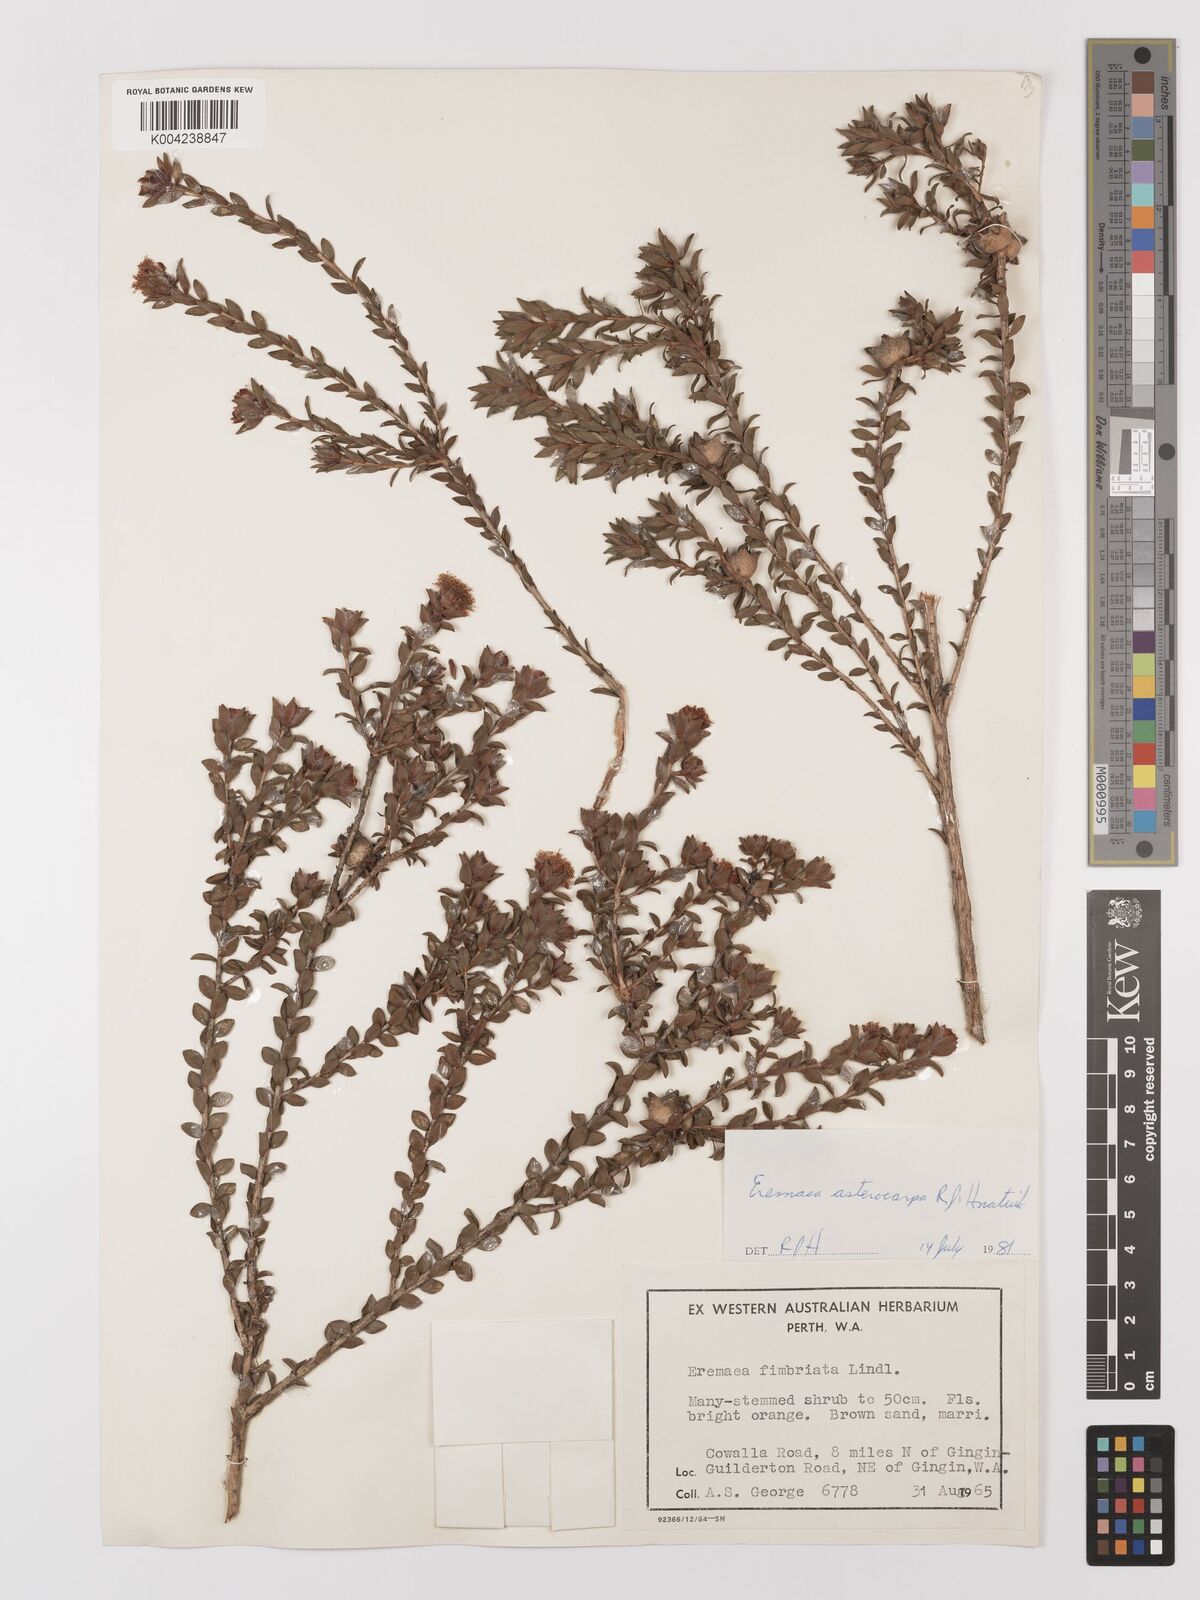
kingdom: Plantae
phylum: Tracheophyta
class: Magnoliopsida
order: Myrtales
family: Myrtaceae
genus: Melaleuca
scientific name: Melaleuca asterocarpa
